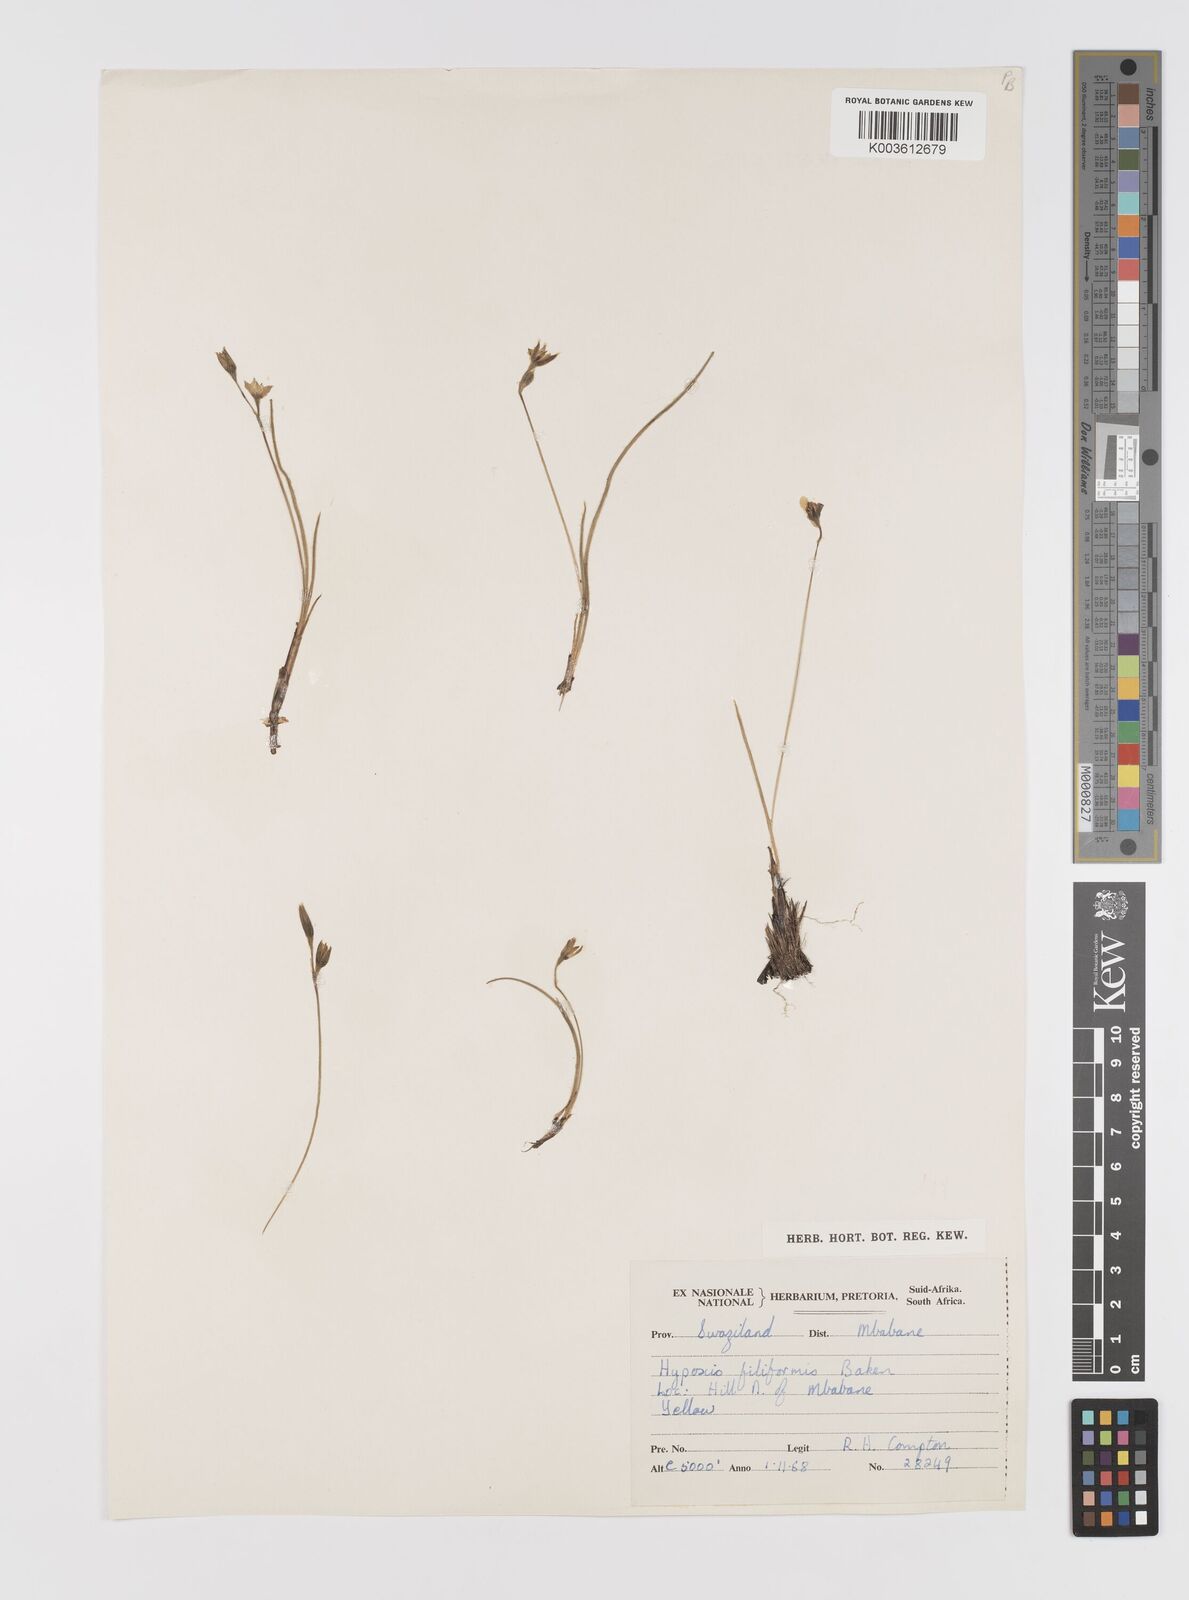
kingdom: Plantae
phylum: Tracheophyta
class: Liliopsida
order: Asparagales
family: Hypoxidaceae
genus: Hypoxis
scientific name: Hypoxis filiformis
